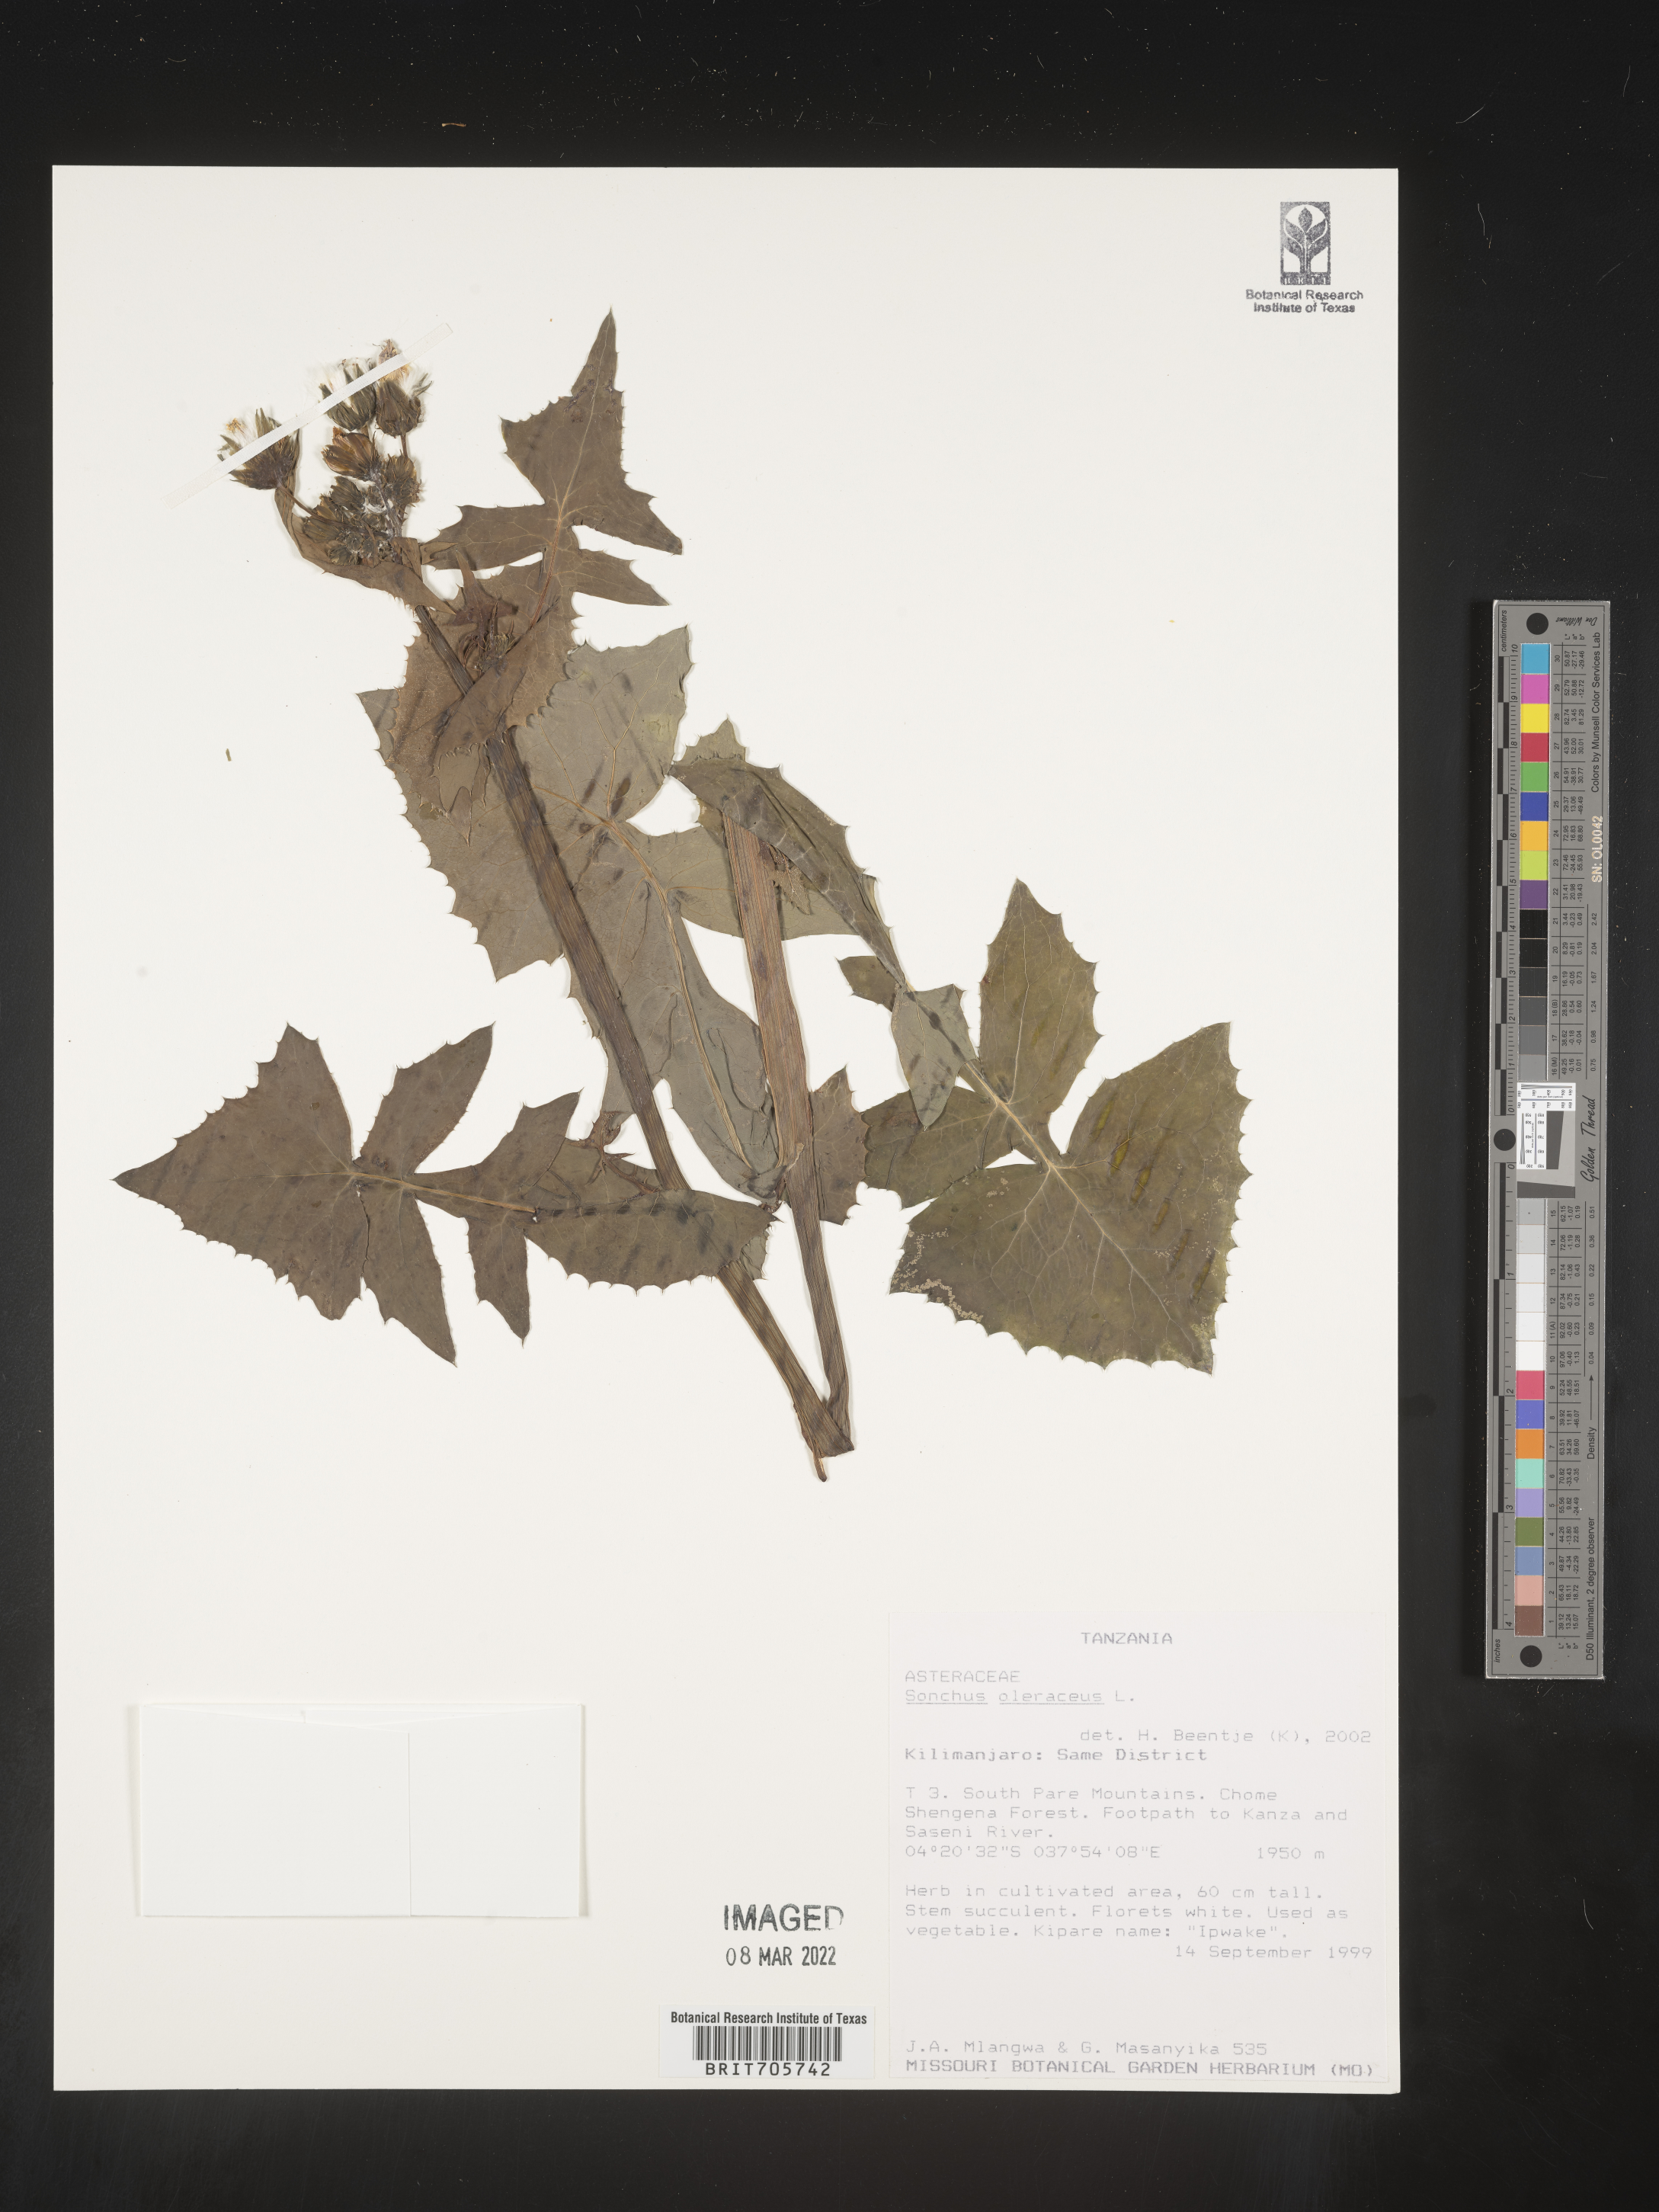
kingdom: Plantae
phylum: Tracheophyta
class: Magnoliopsida
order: Asterales
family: Asteraceae
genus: Sonchus
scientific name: Sonchus
